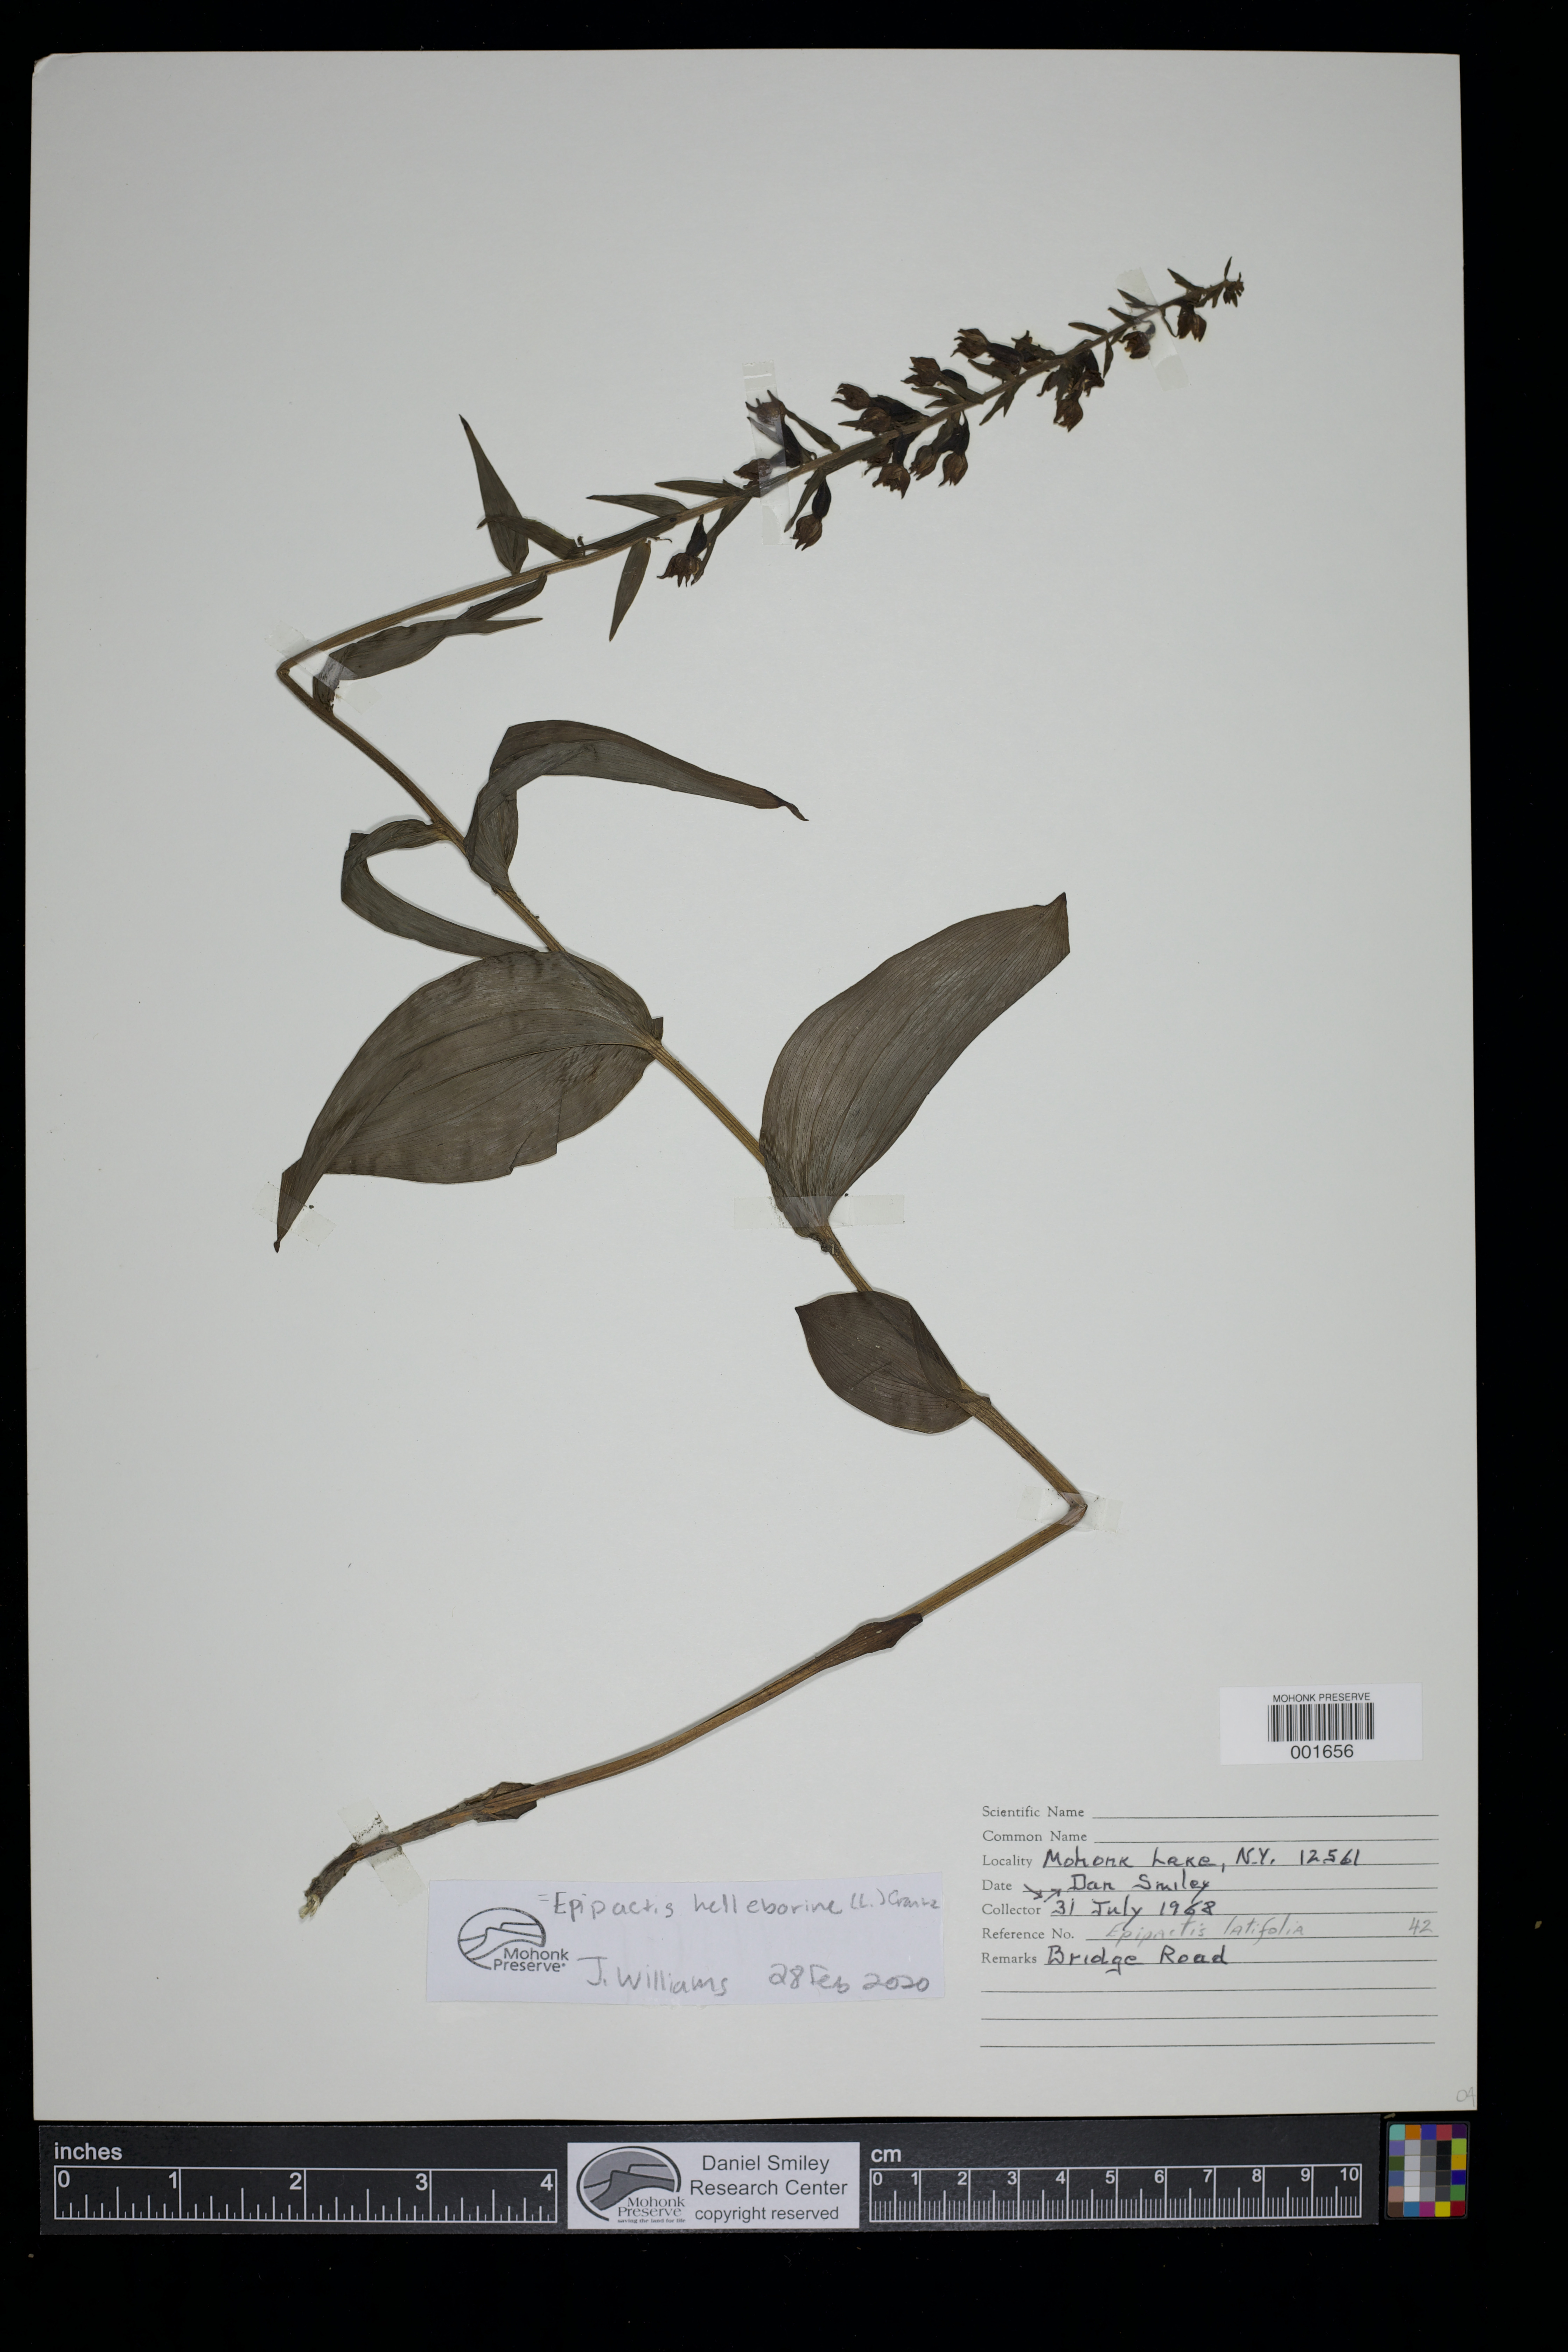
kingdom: Plantae
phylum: Tracheophyta
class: Liliopsida
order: Asparagales
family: Orchidaceae
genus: Epipactis
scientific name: Epipactis helleborine
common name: Broad-leaved helleborine
